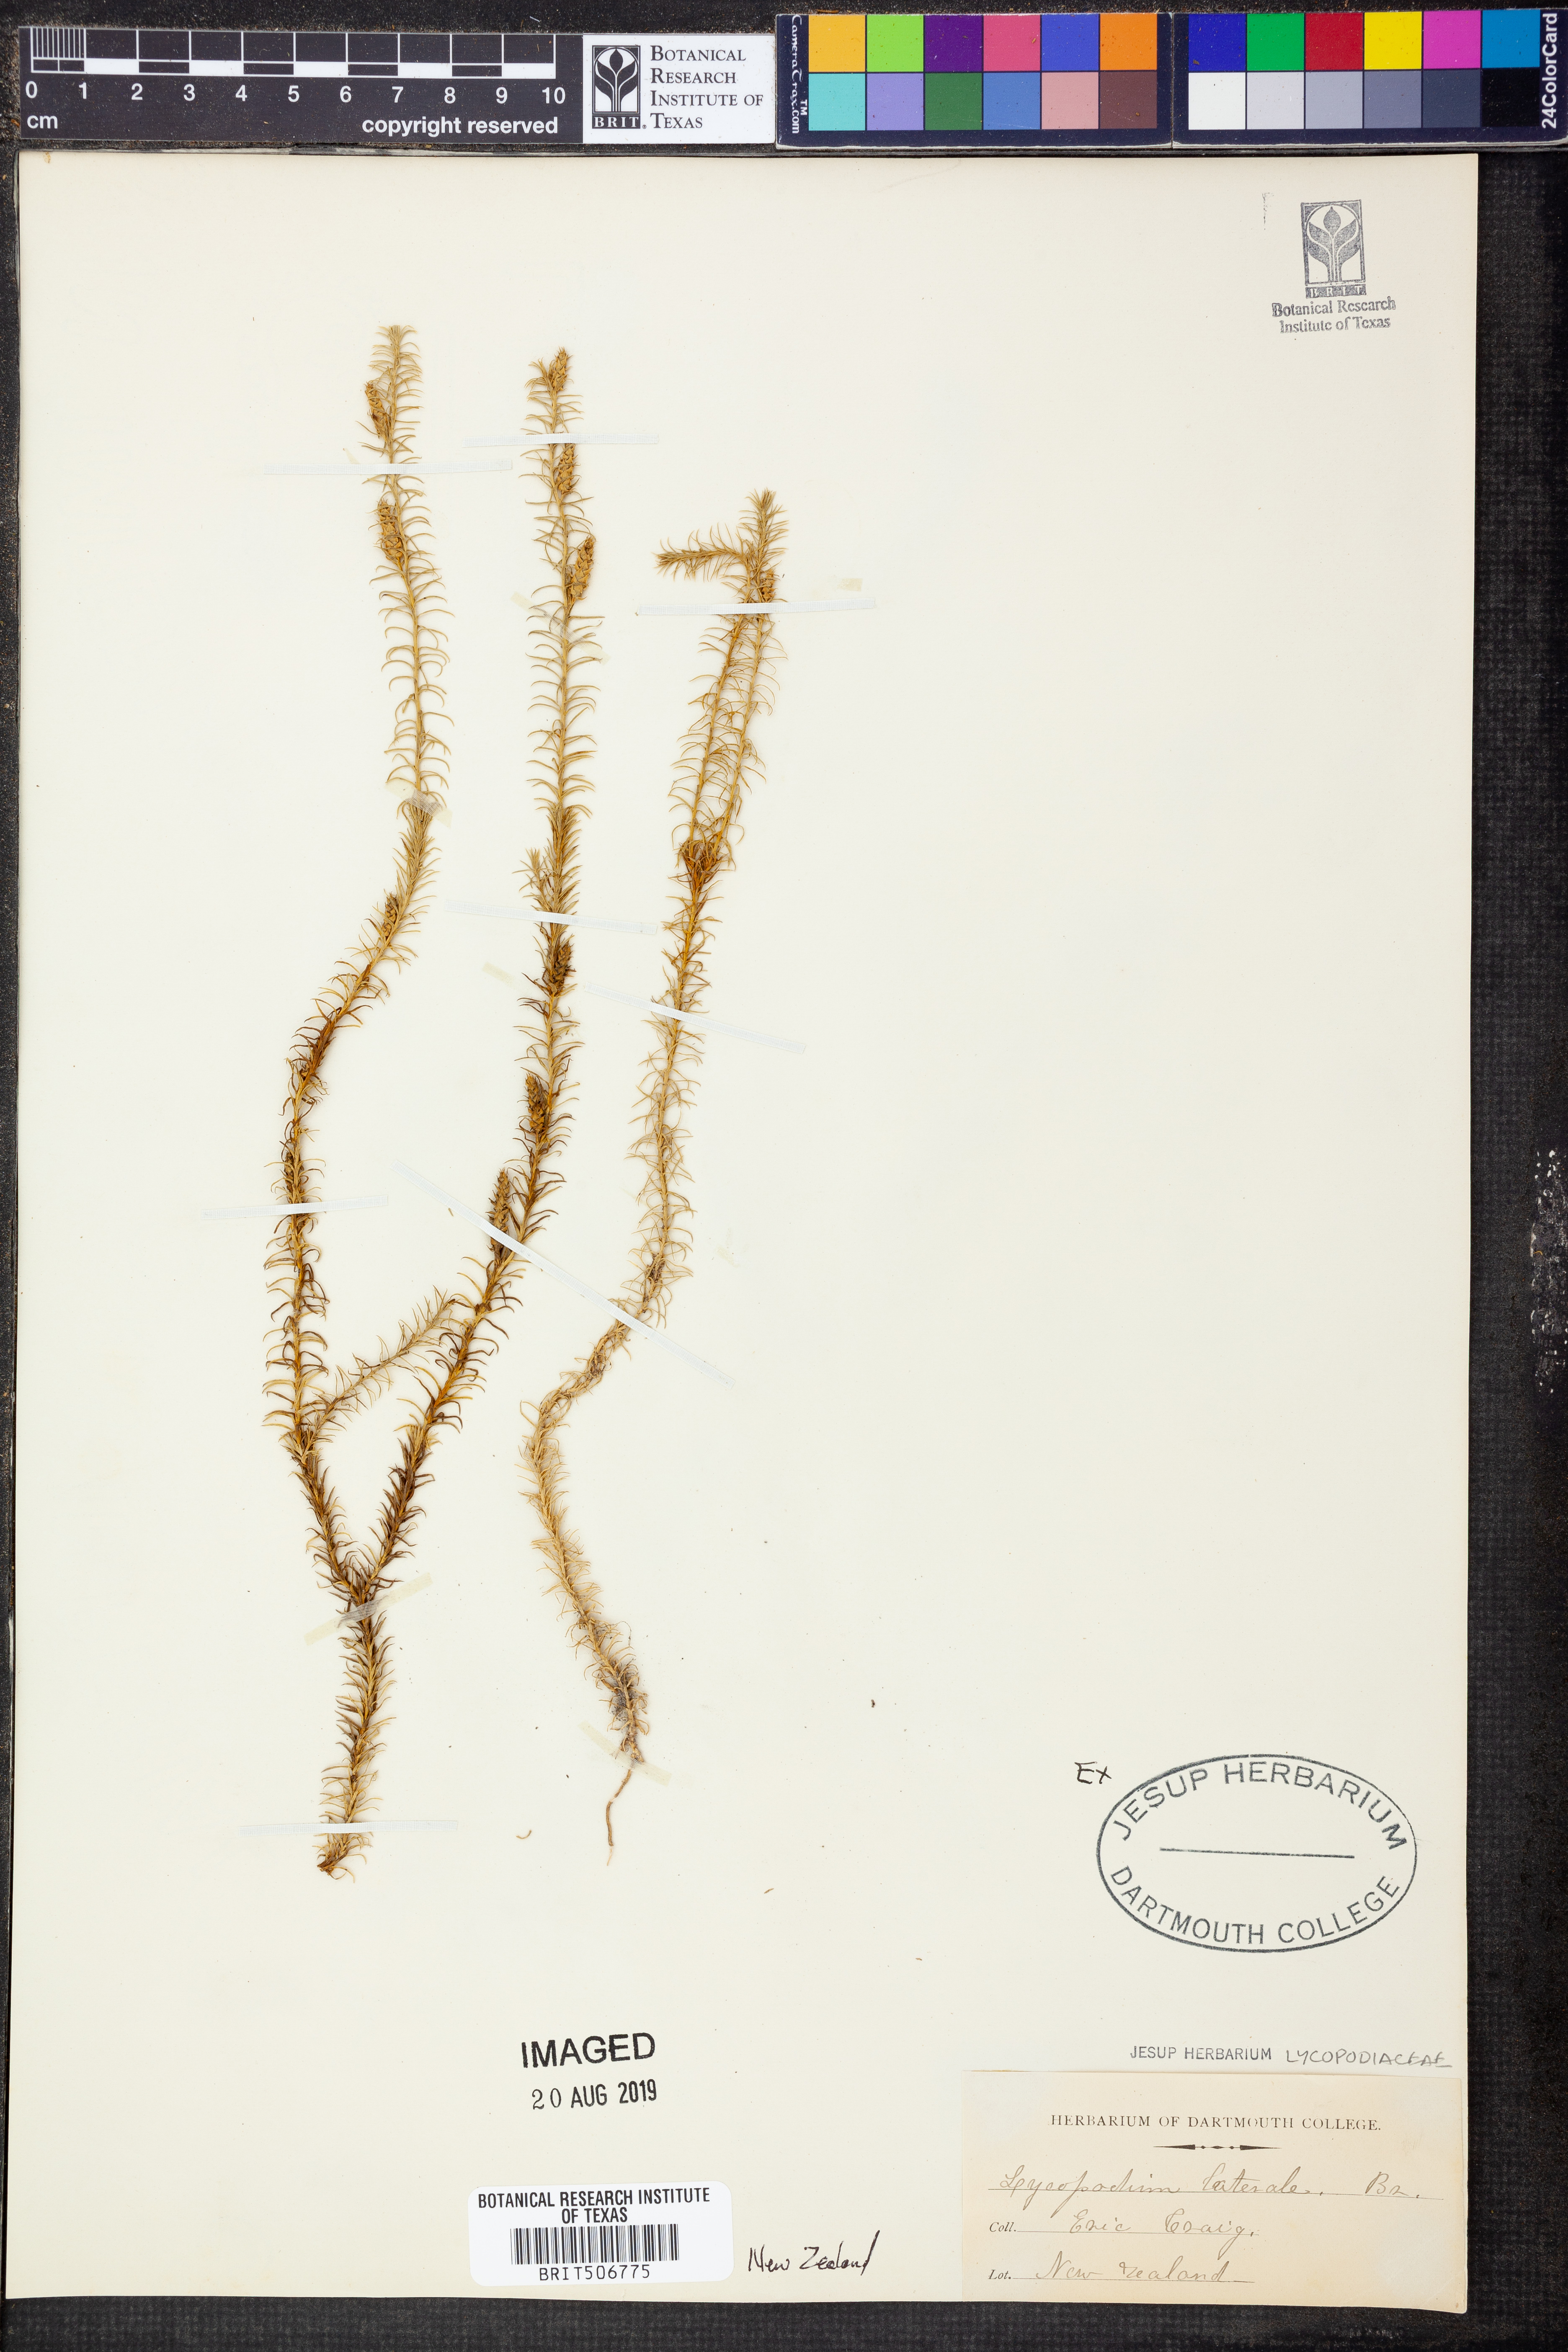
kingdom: Plantae
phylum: Tracheophyta
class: Lycopodiopsida
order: Lycopodiales
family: Lycopodiaceae
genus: Lateristachys
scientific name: Lateristachys lateralis
